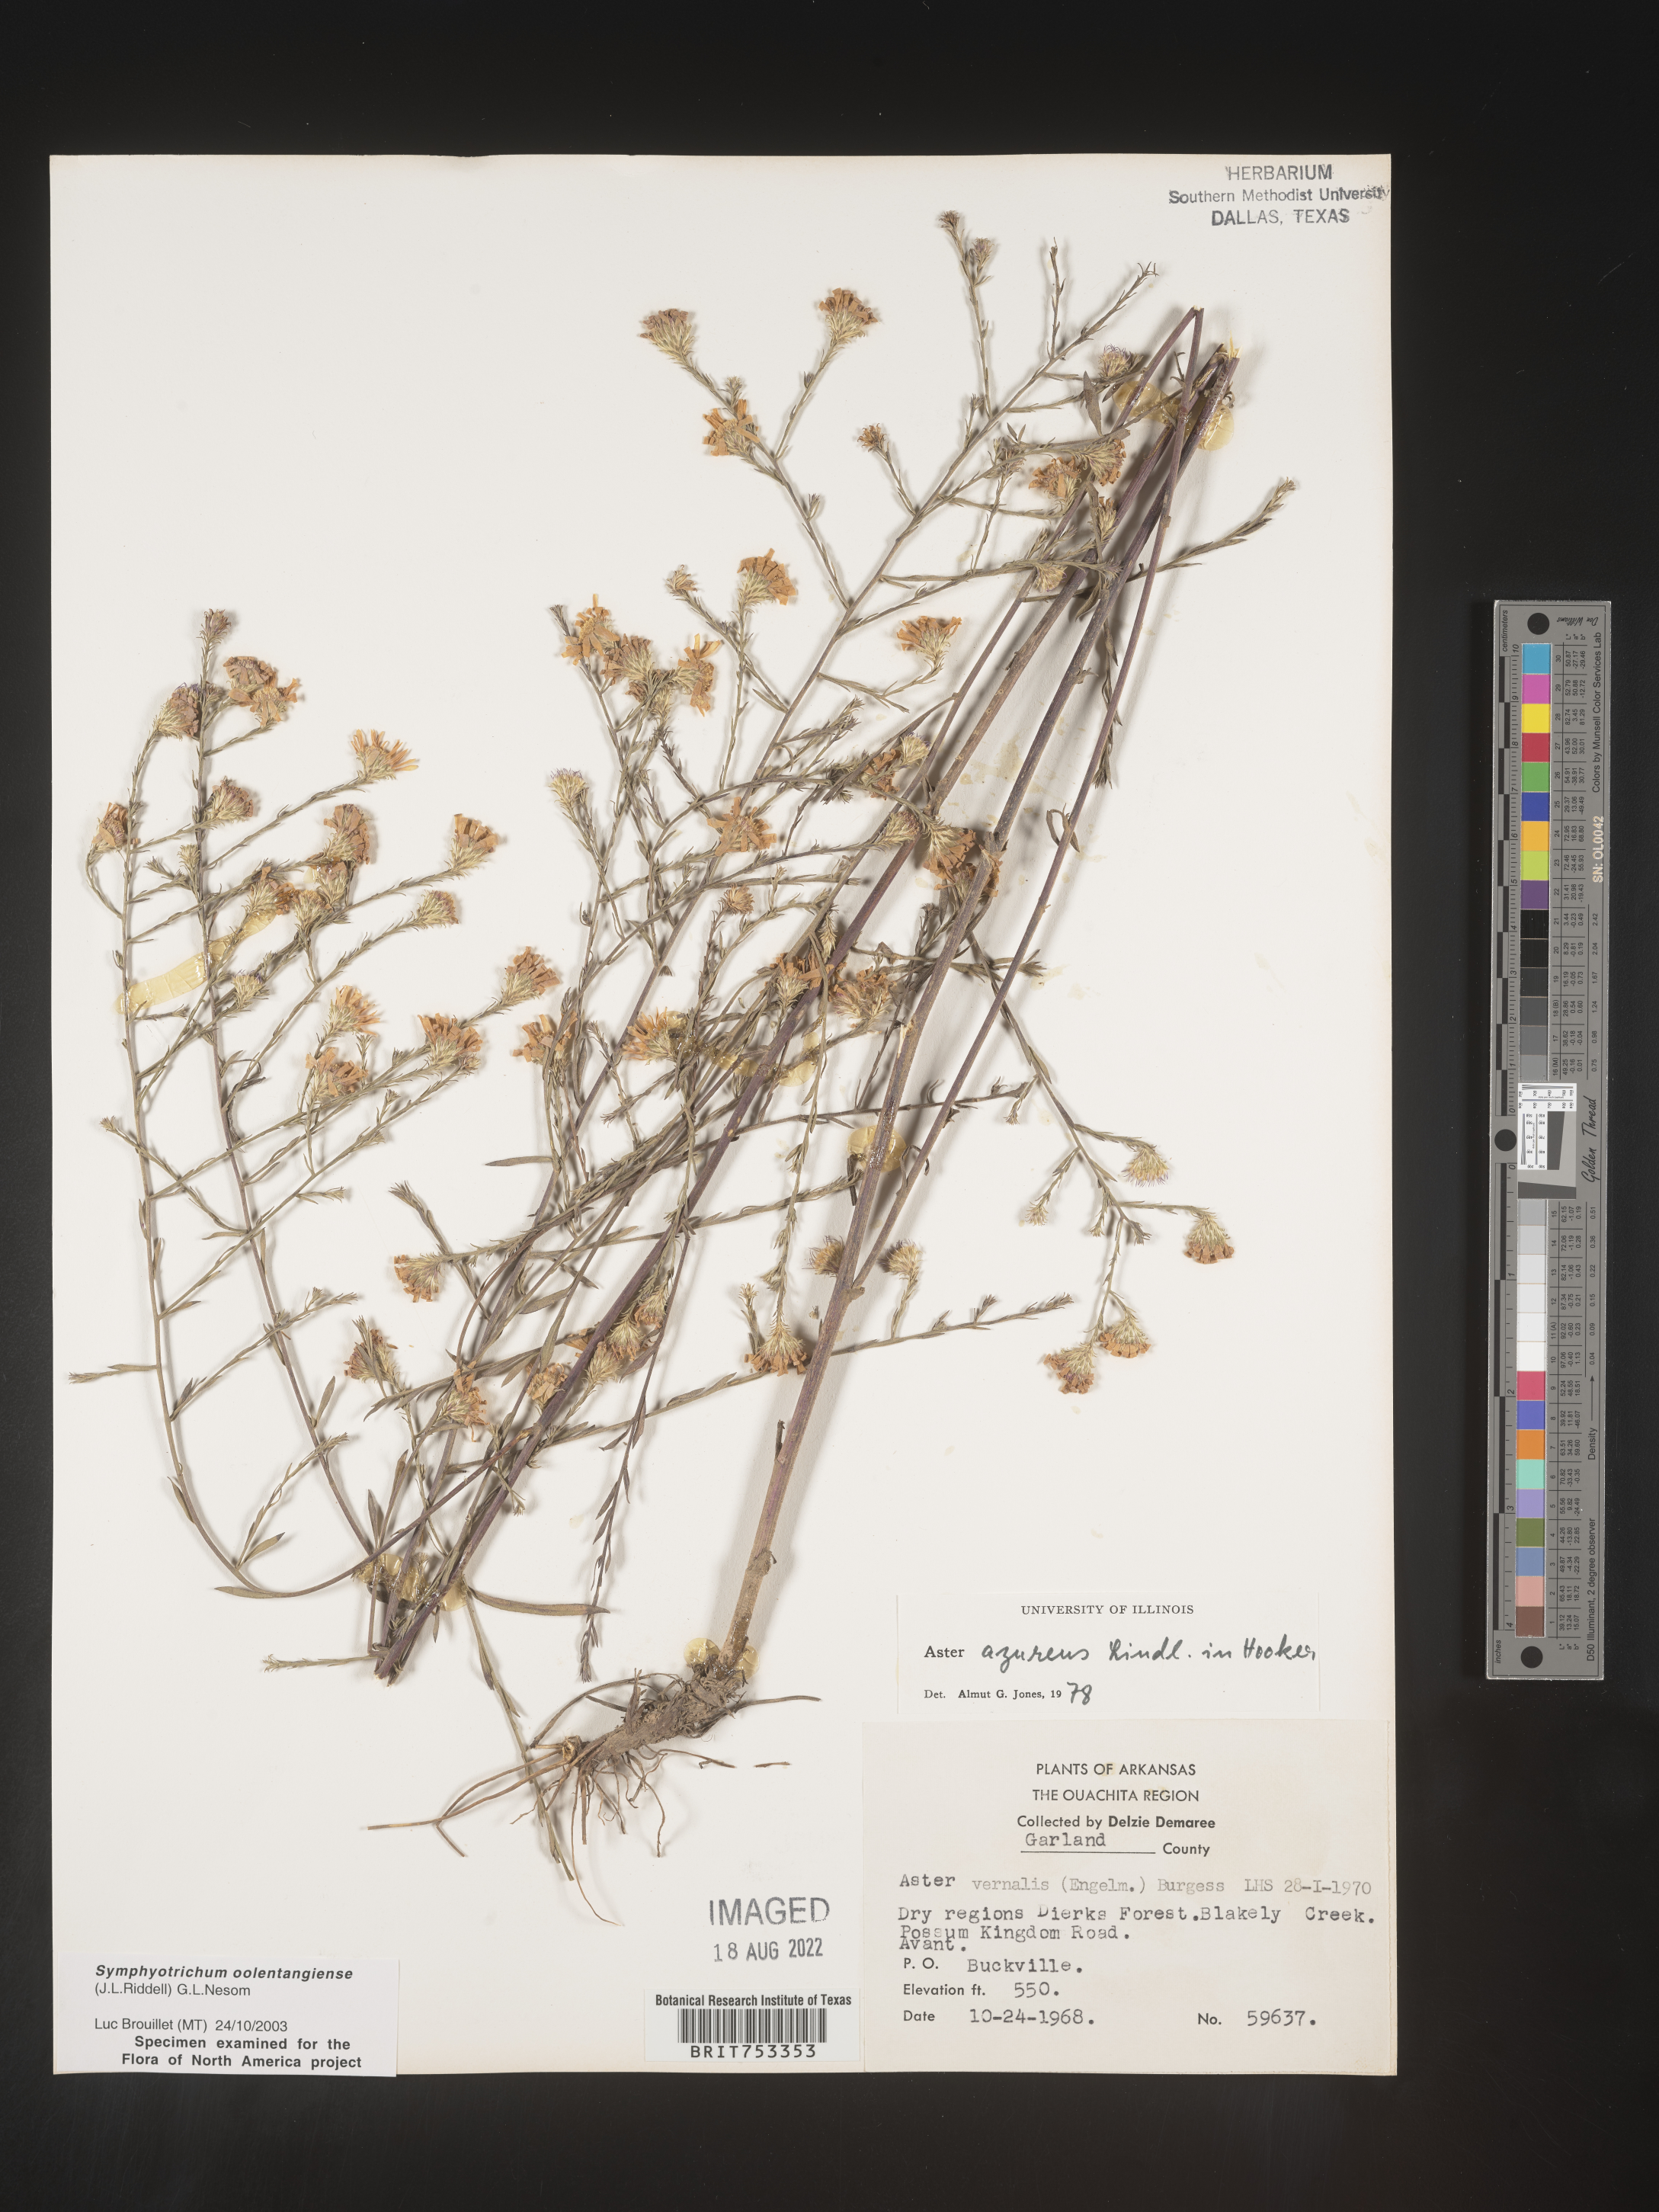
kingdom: Plantae
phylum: Tracheophyta
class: Magnoliopsida
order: Asterales
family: Asteraceae
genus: Symphyotrichum
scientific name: Symphyotrichum oolentangiense
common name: Azure aster
